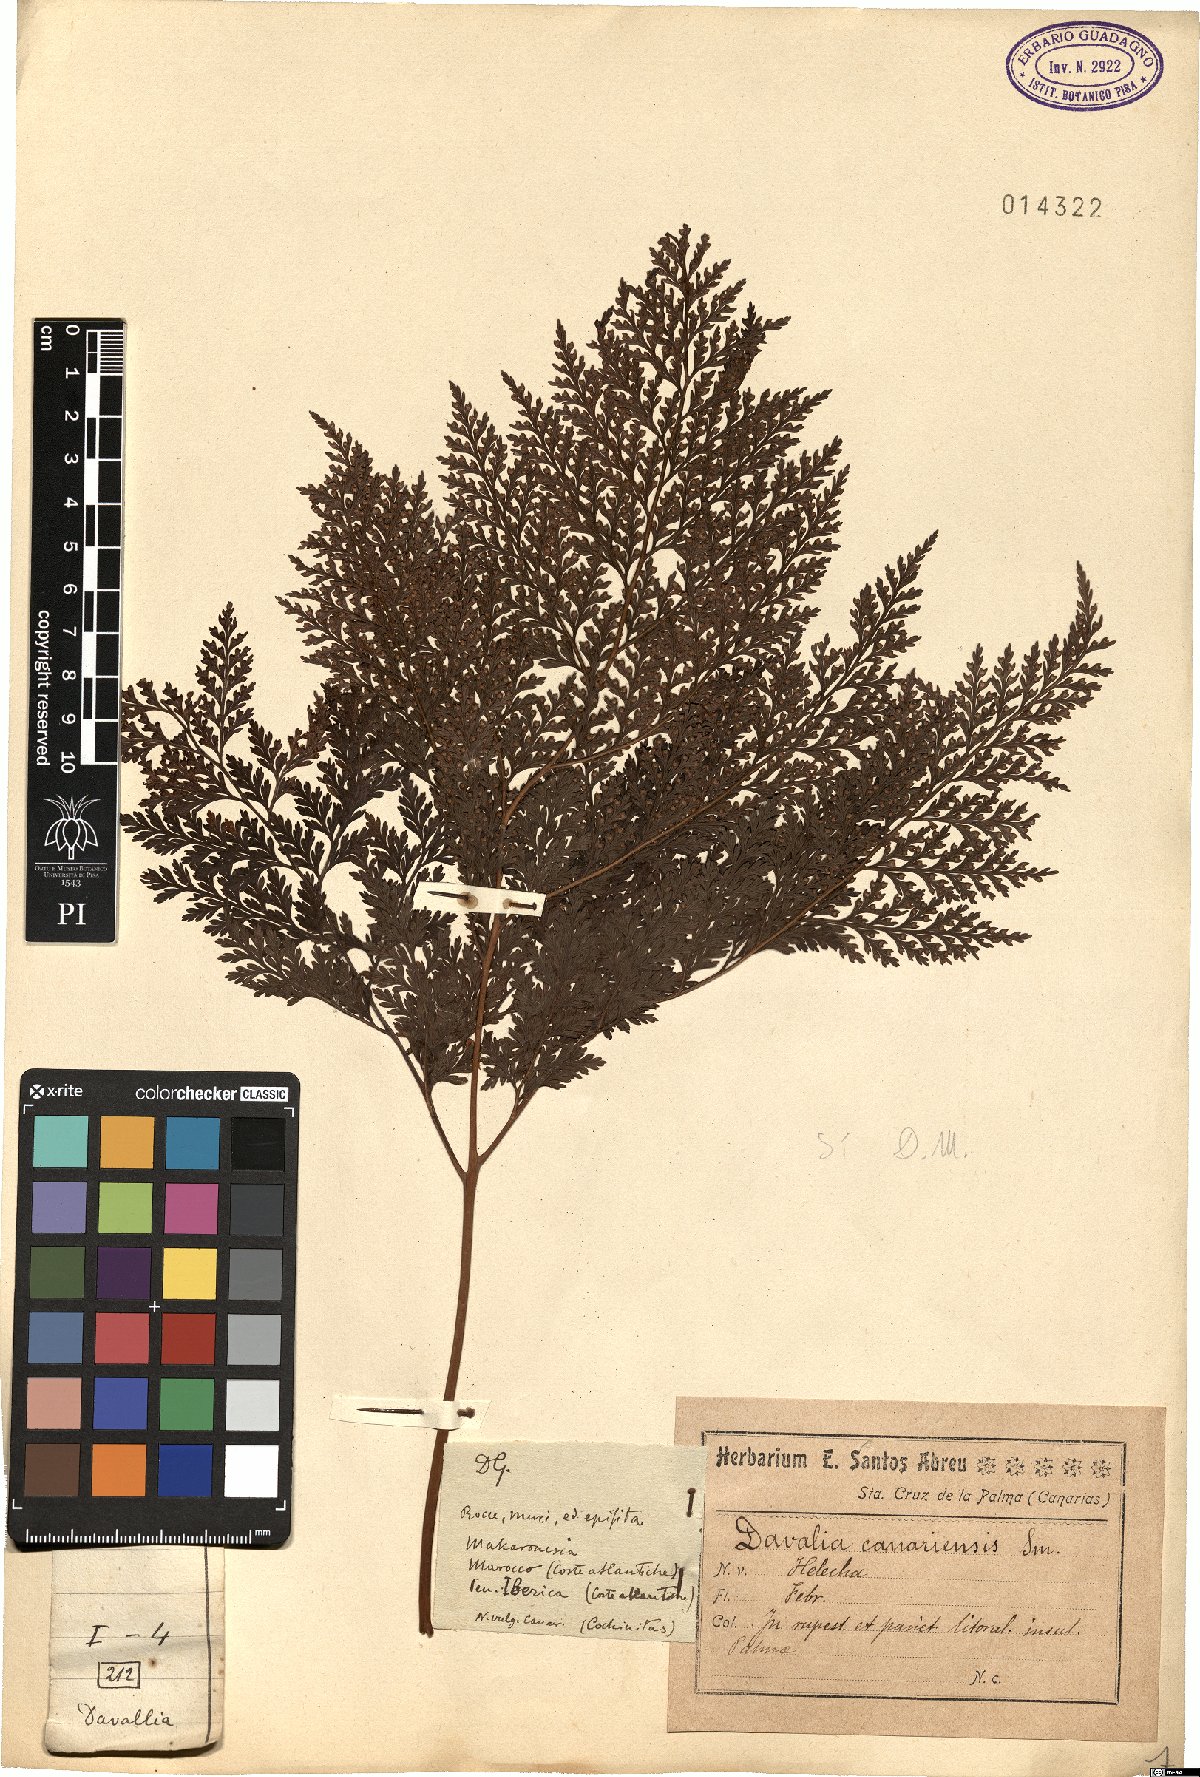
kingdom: Plantae
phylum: Tracheophyta
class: Polypodiopsida
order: Polypodiales
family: Davalliaceae
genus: Davallia
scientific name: Davallia canariensis
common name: Hare's-foot fern
